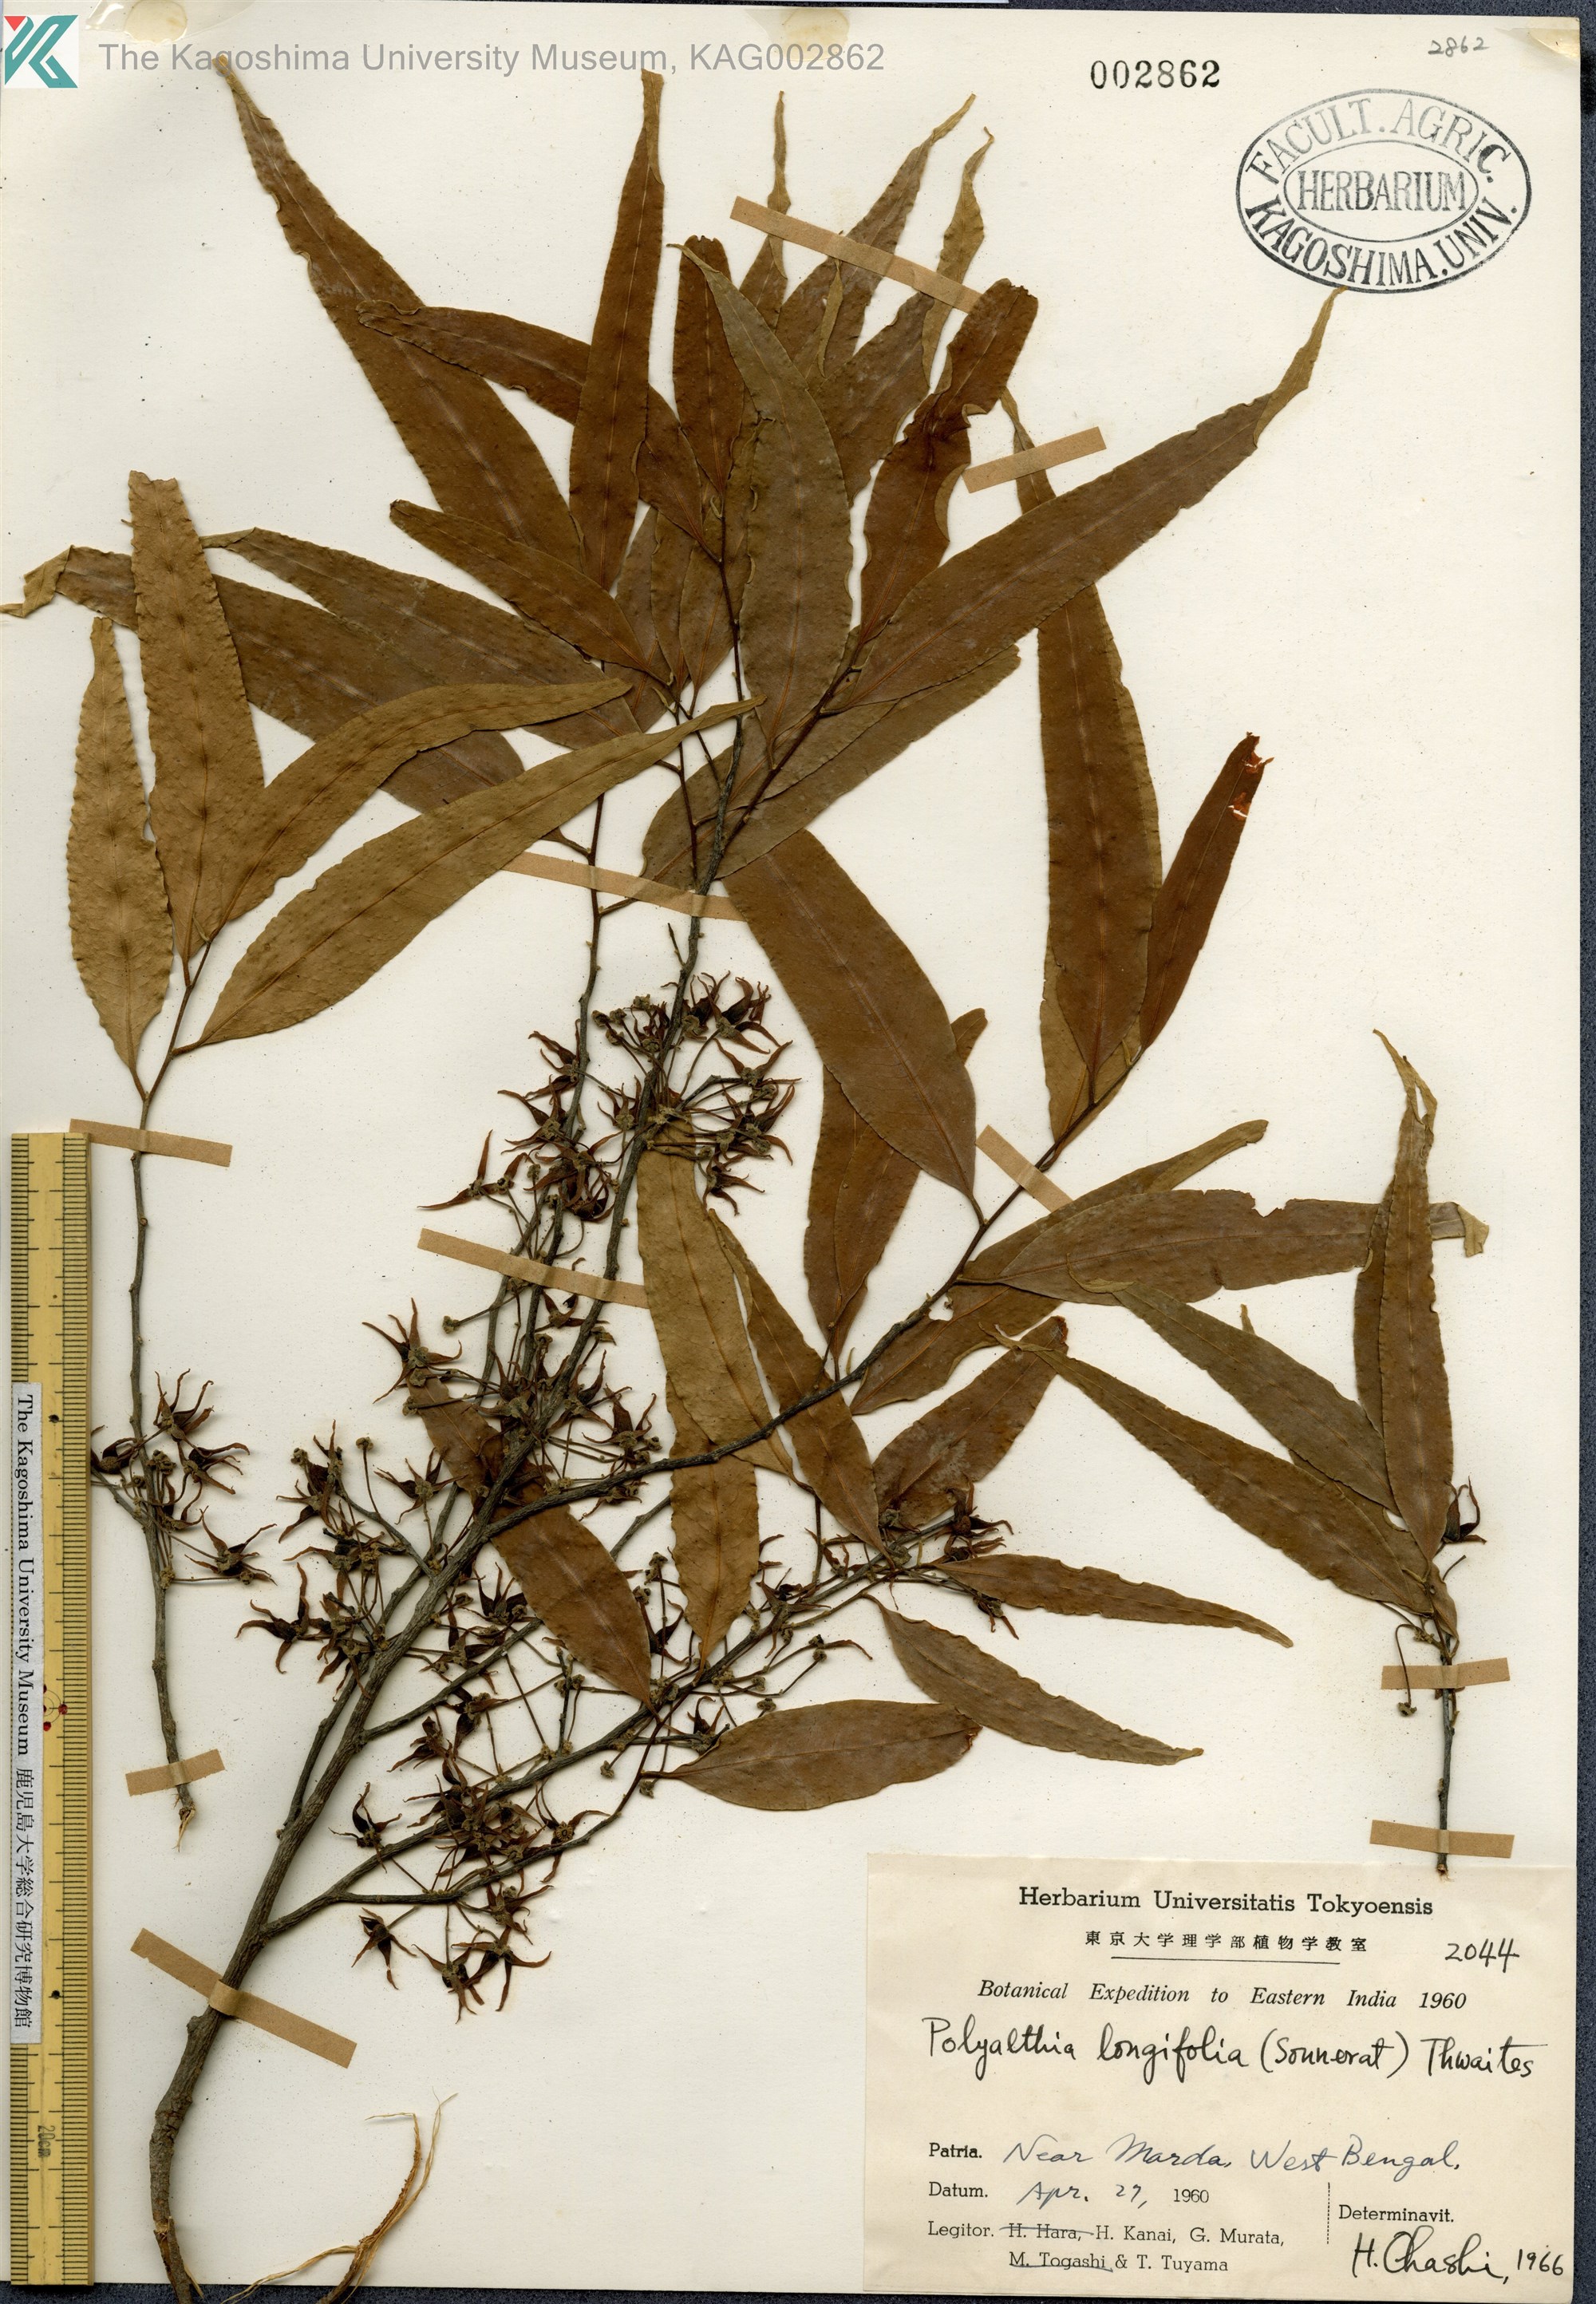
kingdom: Plantae
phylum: Tracheophyta
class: Magnoliopsida
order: Magnoliales
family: Annonaceae
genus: Polyalthia
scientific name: Polyalthia longifolia
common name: Cemetery-tree
